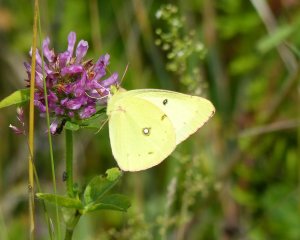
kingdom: Animalia
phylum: Arthropoda
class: Insecta
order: Lepidoptera
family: Pieridae
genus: Colias
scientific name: Colias philodice
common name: Clouded Sulphur
